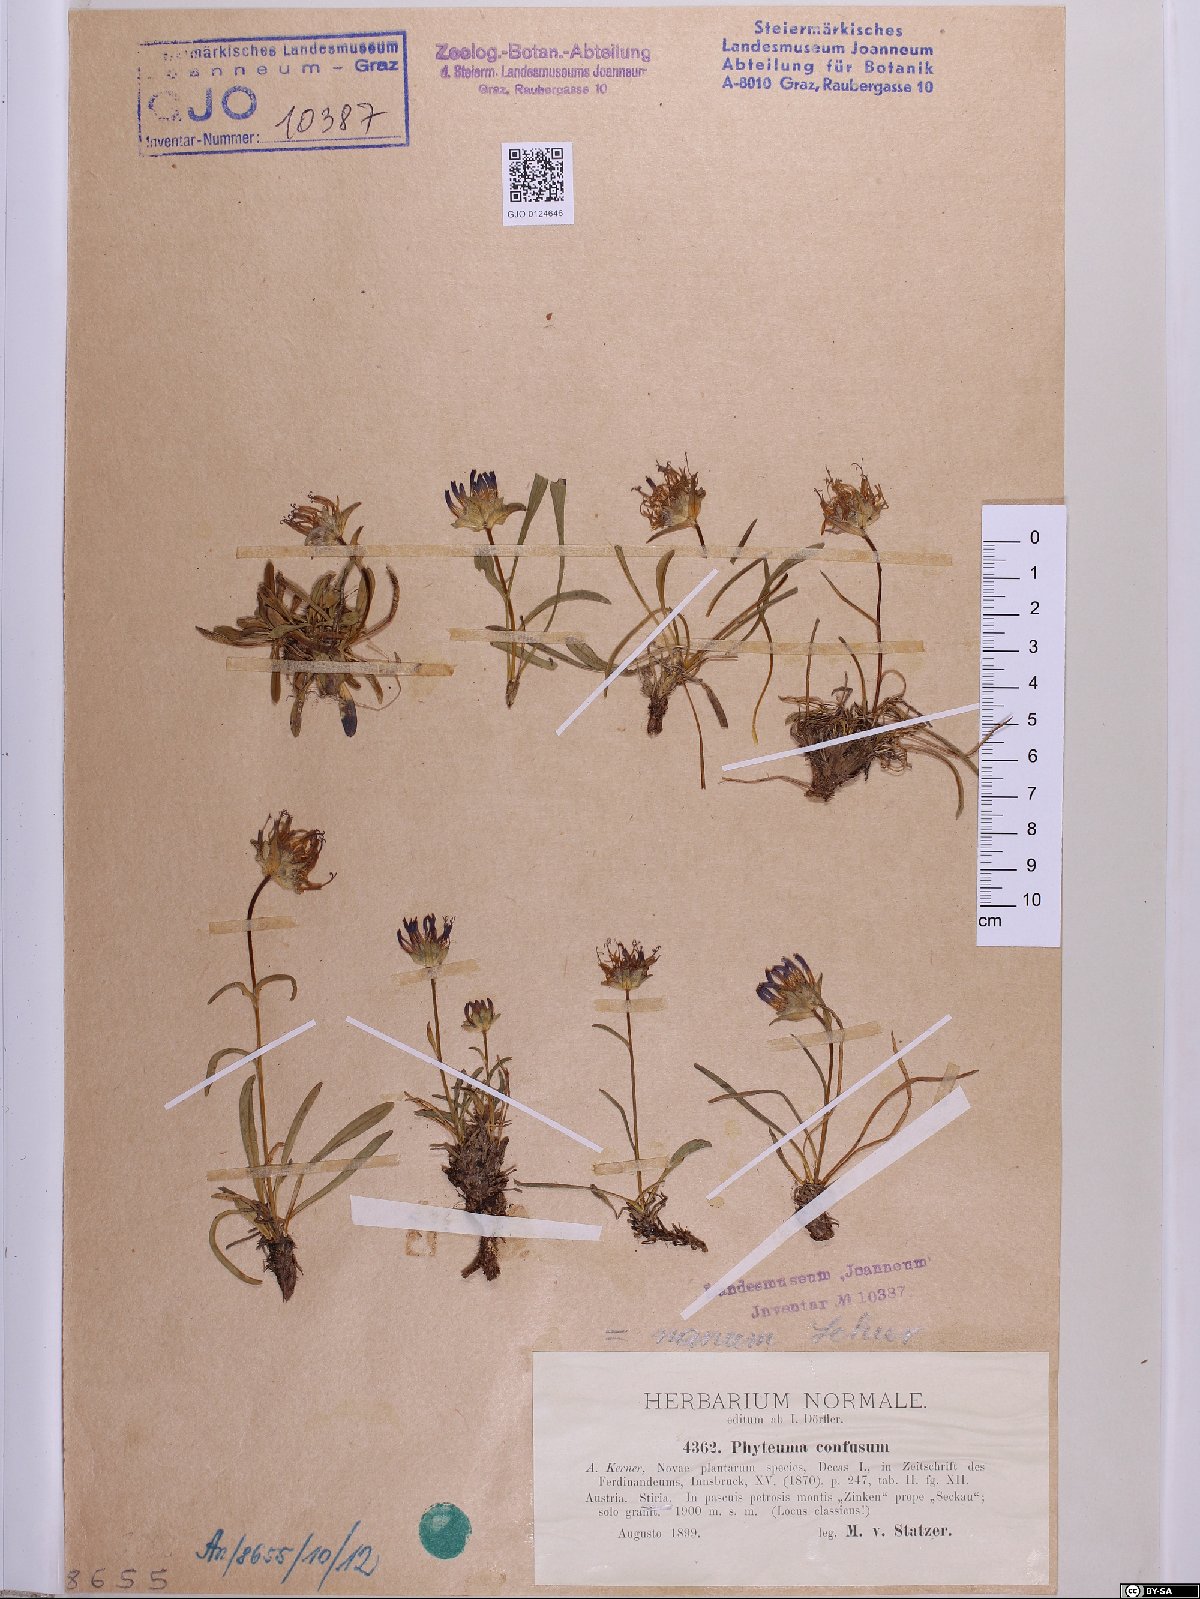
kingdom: Plantae
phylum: Tracheophyta
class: Magnoliopsida
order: Asterales
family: Campanulaceae
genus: Phyteuma
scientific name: Phyteuma confusum
